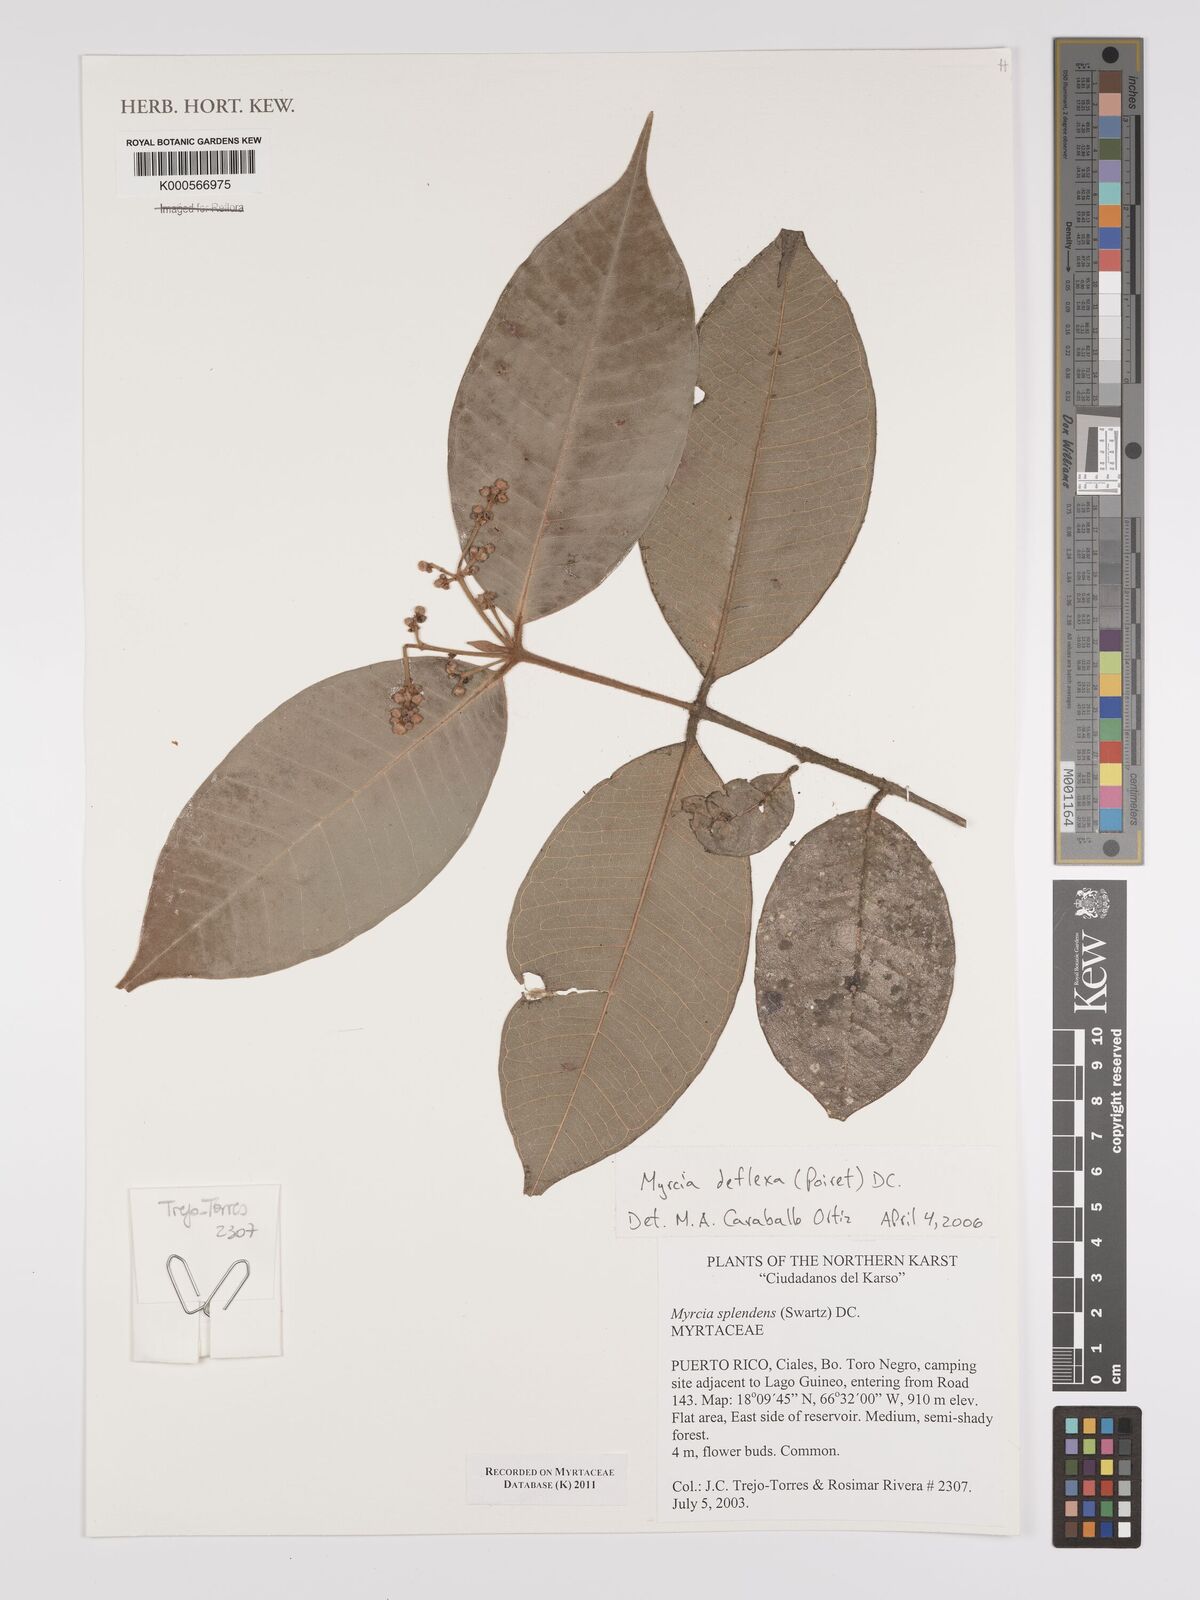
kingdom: Plantae
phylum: Tracheophyta
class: Magnoliopsida
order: Myrtales
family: Myrtaceae
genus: Myrcia
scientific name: Myrcia deflexa
